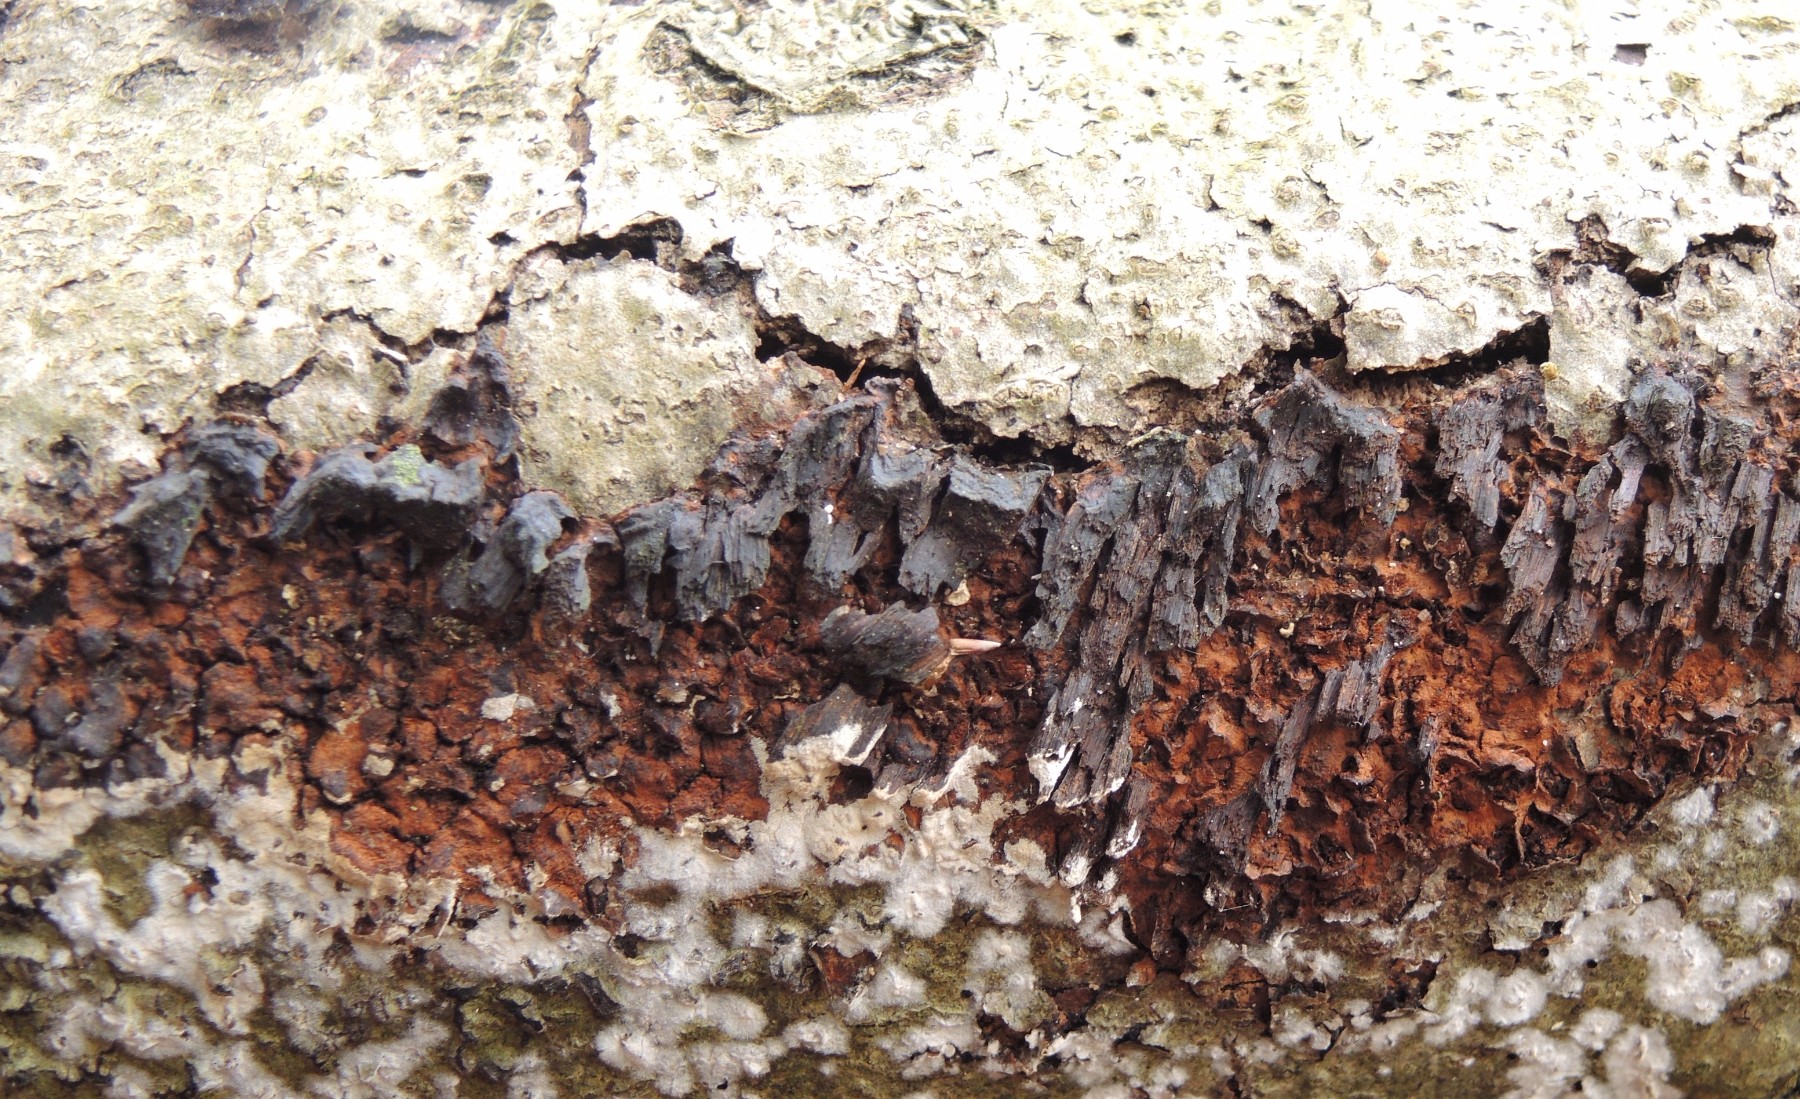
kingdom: Fungi
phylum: Basidiomycota
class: Agaricomycetes
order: Hymenochaetales
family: Hymenochaetaceae
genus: Mensularia
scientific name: Mensularia nodulosa
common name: bøge-spejlporesvamp
